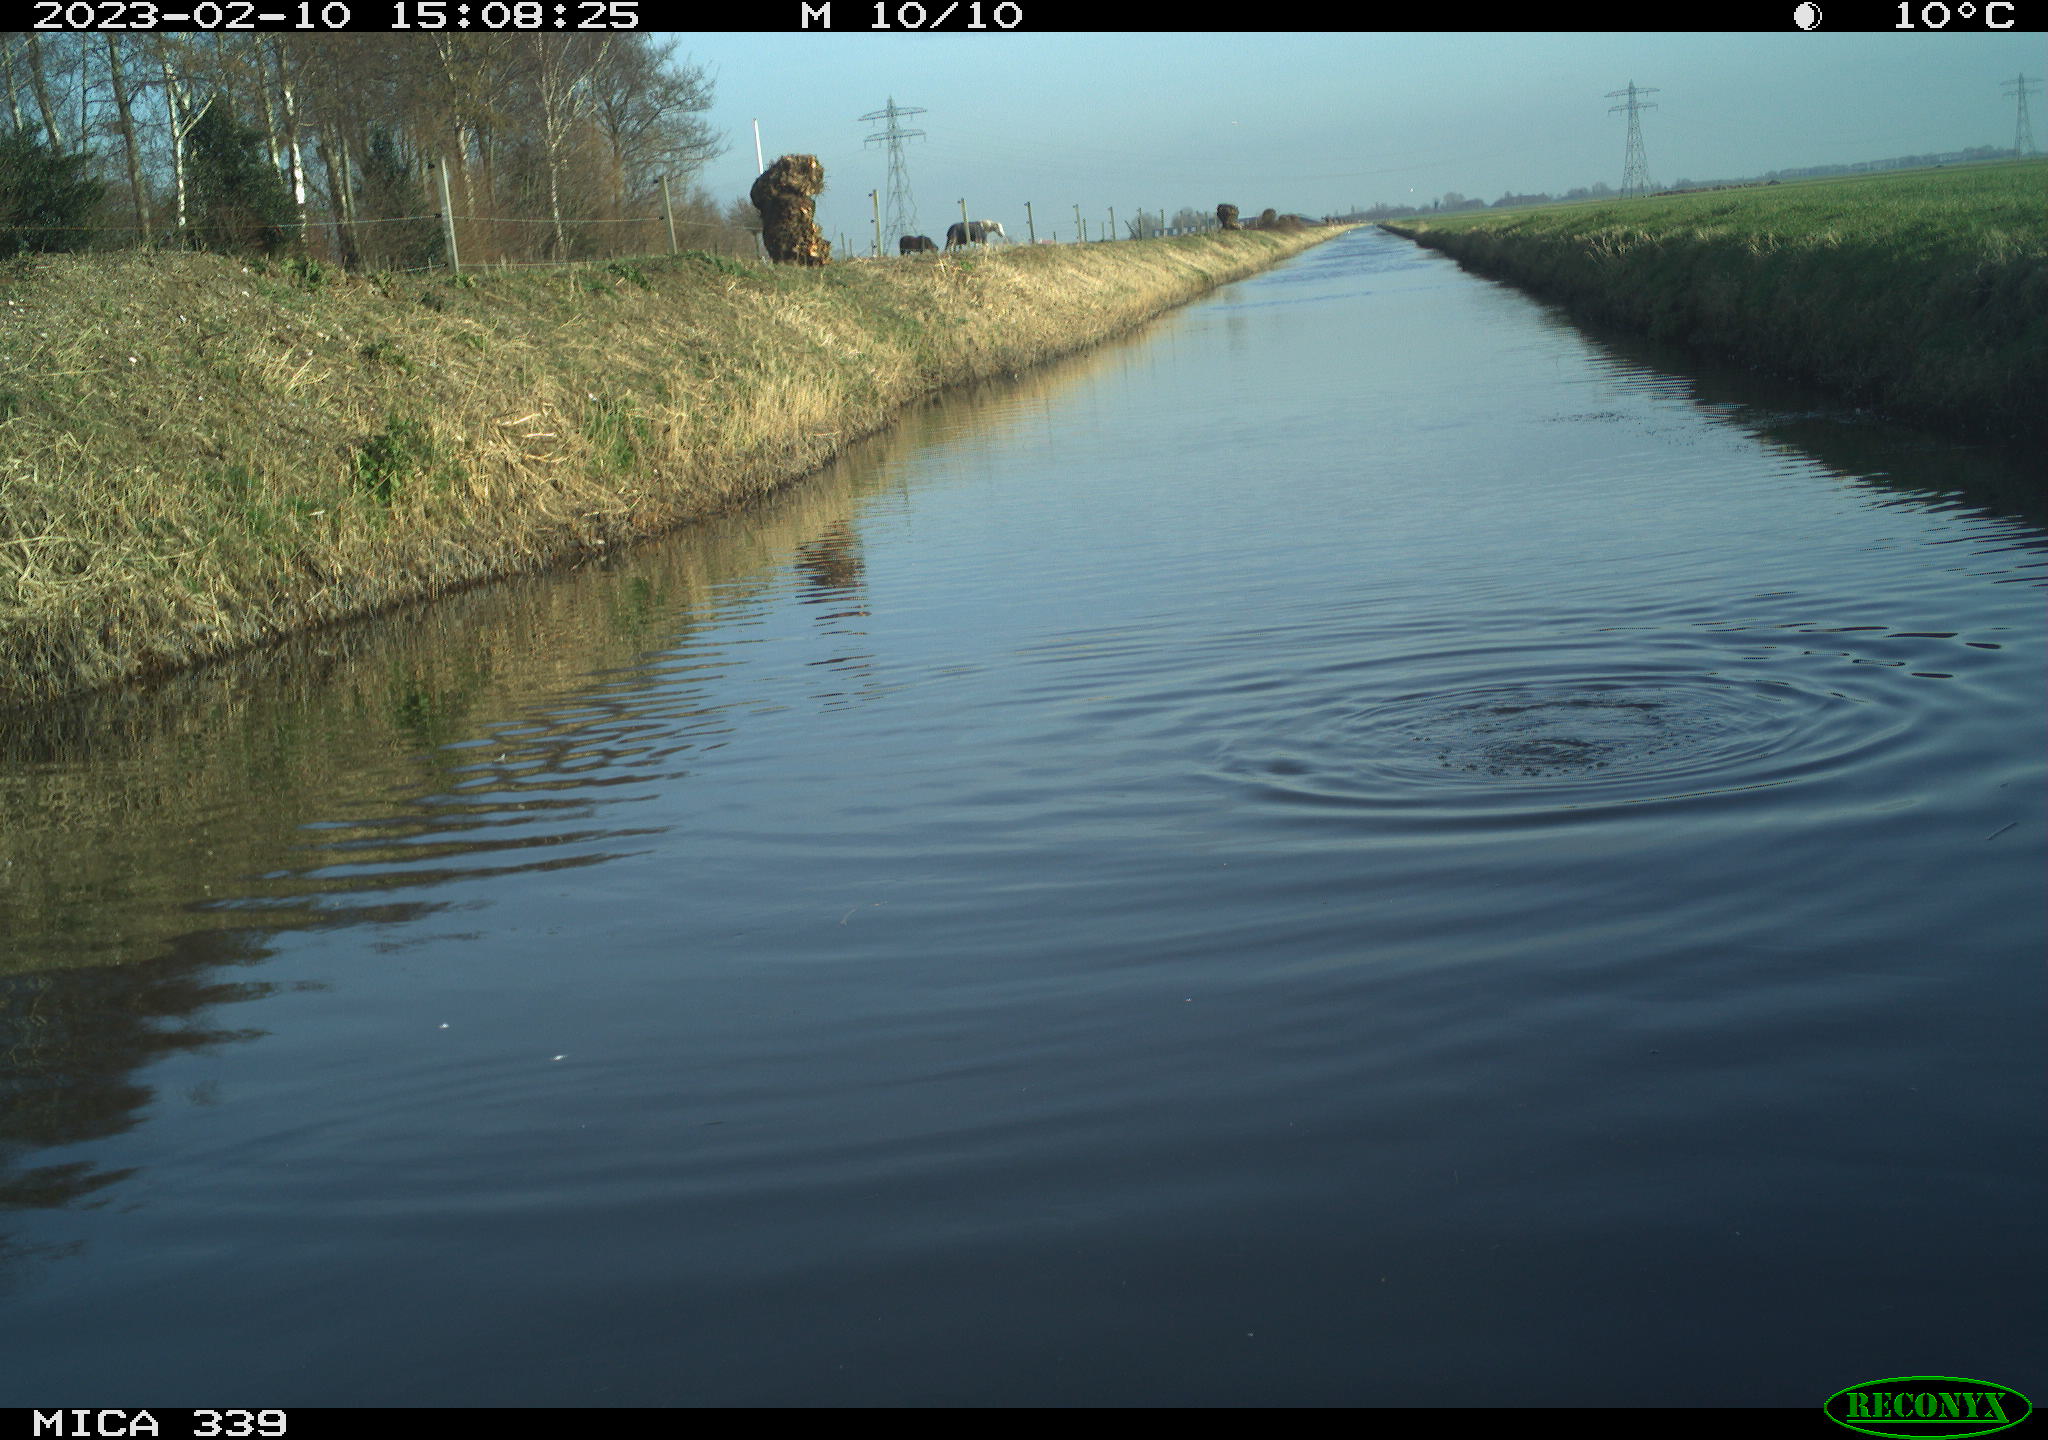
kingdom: Animalia
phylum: Chordata
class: Aves
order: Suliformes
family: Phalacrocoracidae
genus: Phalacrocorax
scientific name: Phalacrocorax carbo
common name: Great cormorant
